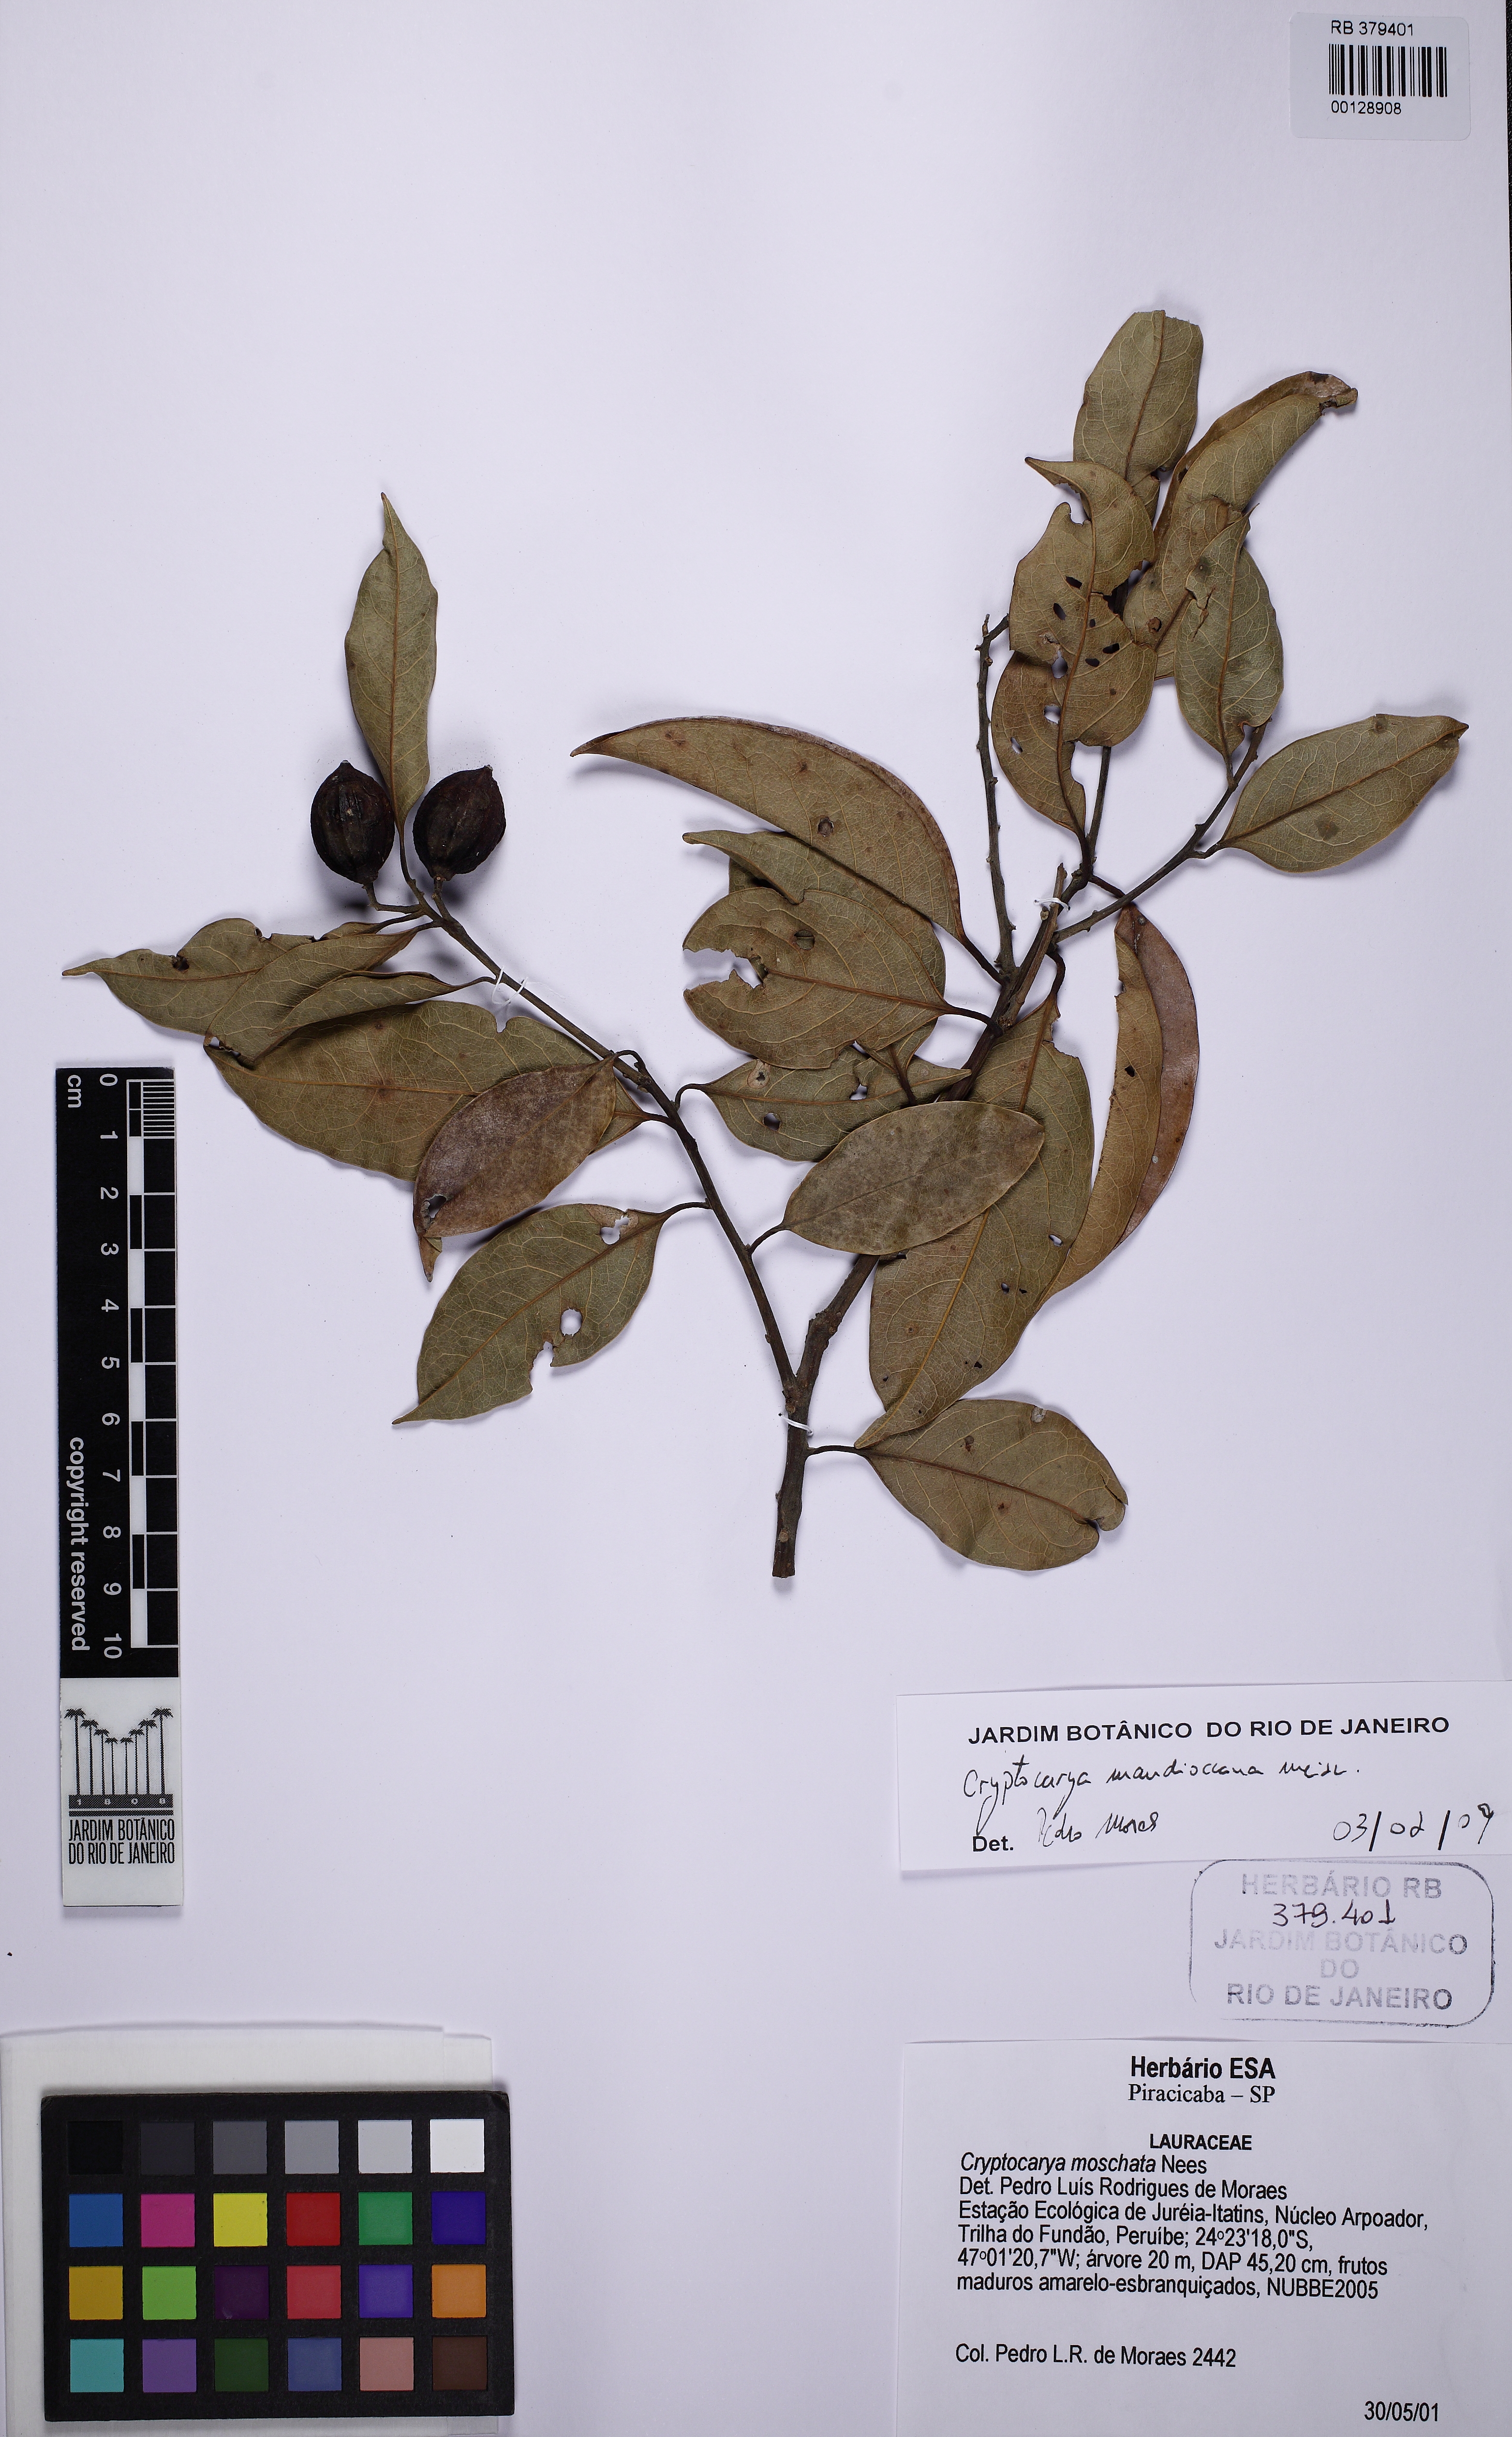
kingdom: Plantae
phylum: Tracheophyta
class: Magnoliopsida
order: Laurales
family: Lauraceae
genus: Cryptocarya
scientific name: Cryptocarya mandioccana
